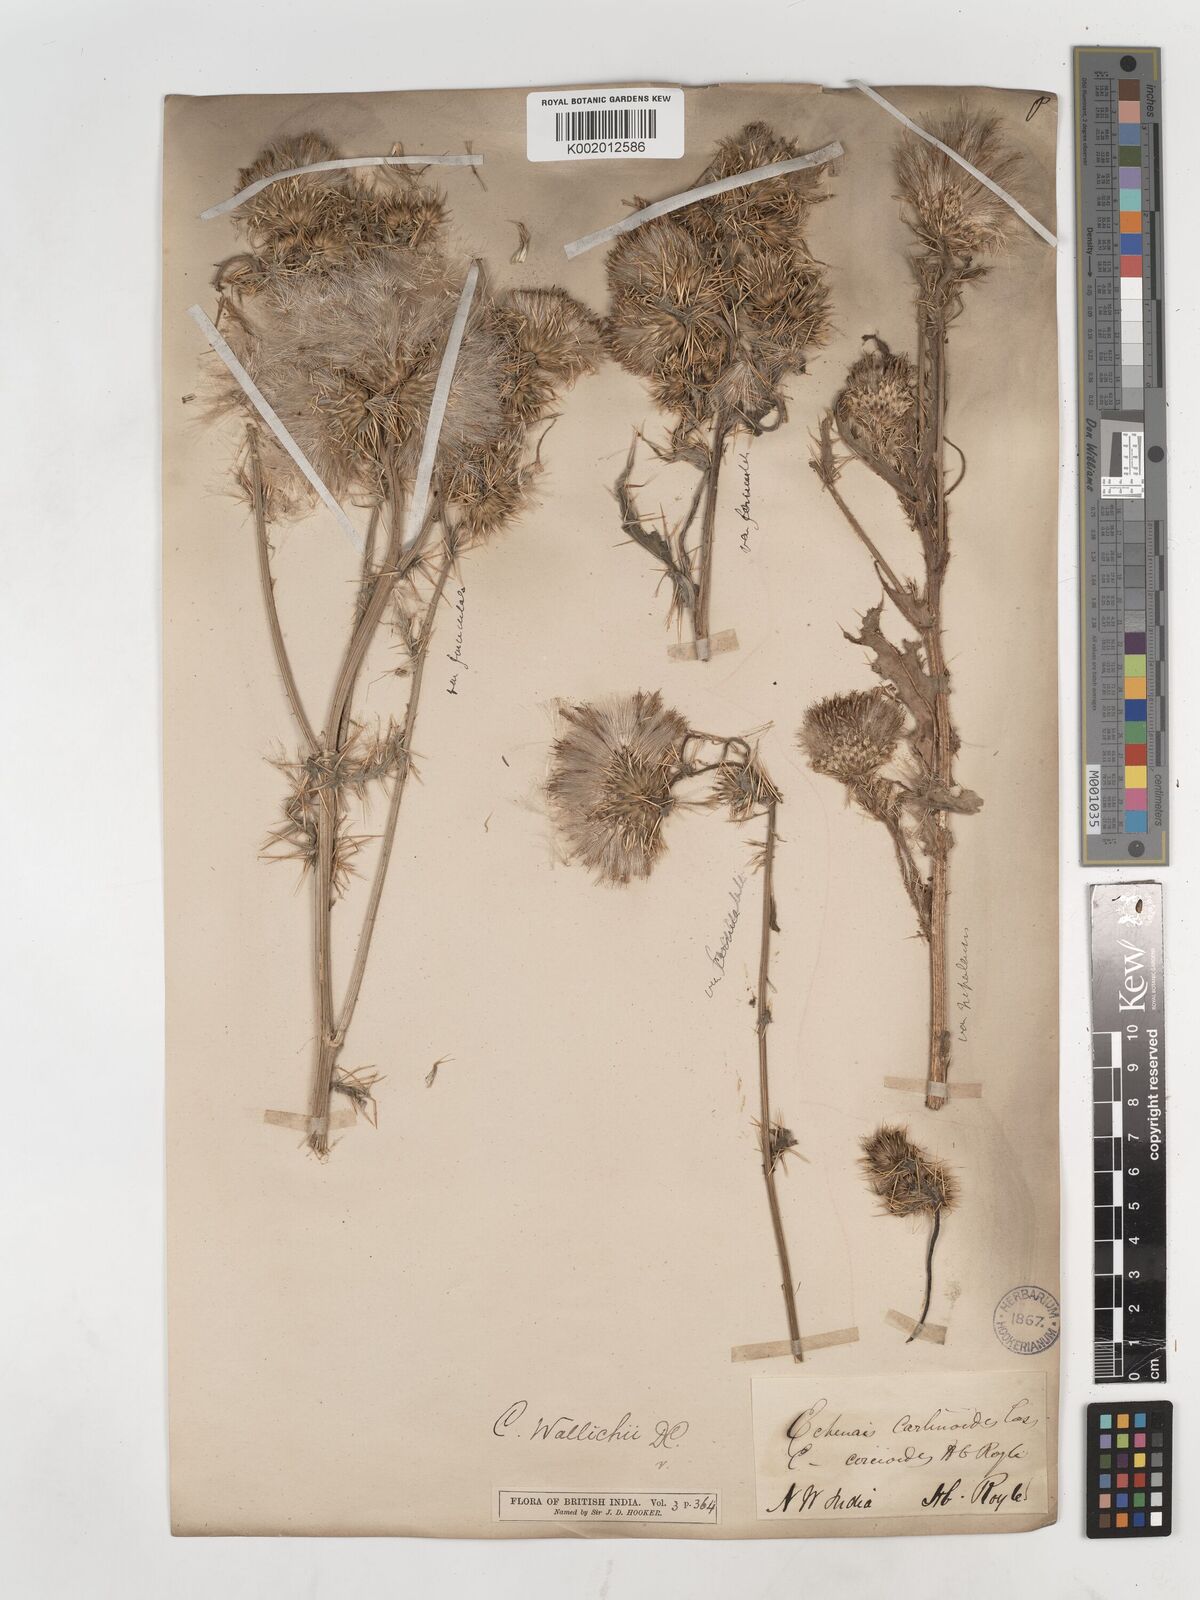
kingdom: Plantae
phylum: Tracheophyta
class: Magnoliopsida
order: Asterales
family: Asteraceae
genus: Cirsium
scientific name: Cirsium
